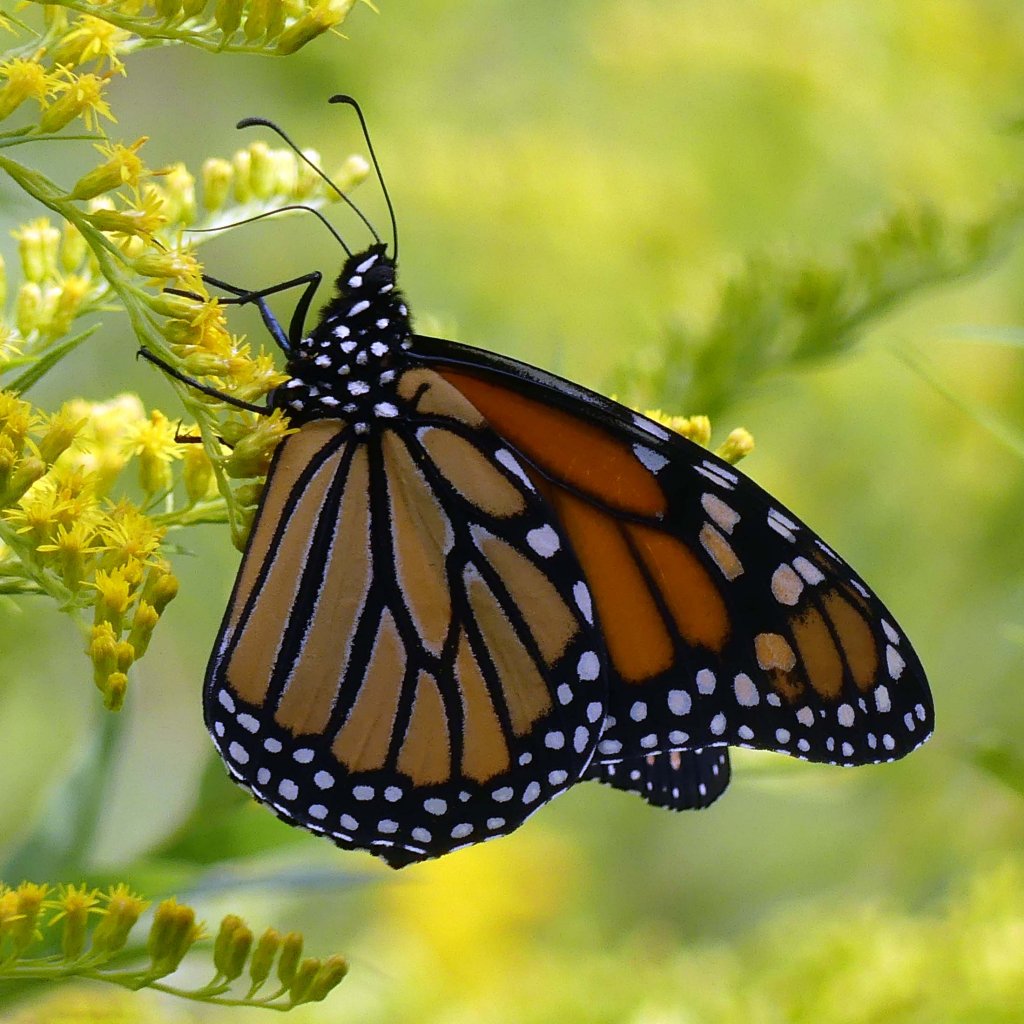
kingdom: Animalia
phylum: Arthropoda
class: Insecta
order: Lepidoptera
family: Nymphalidae
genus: Danaus
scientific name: Danaus plexippus
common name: Monarch
